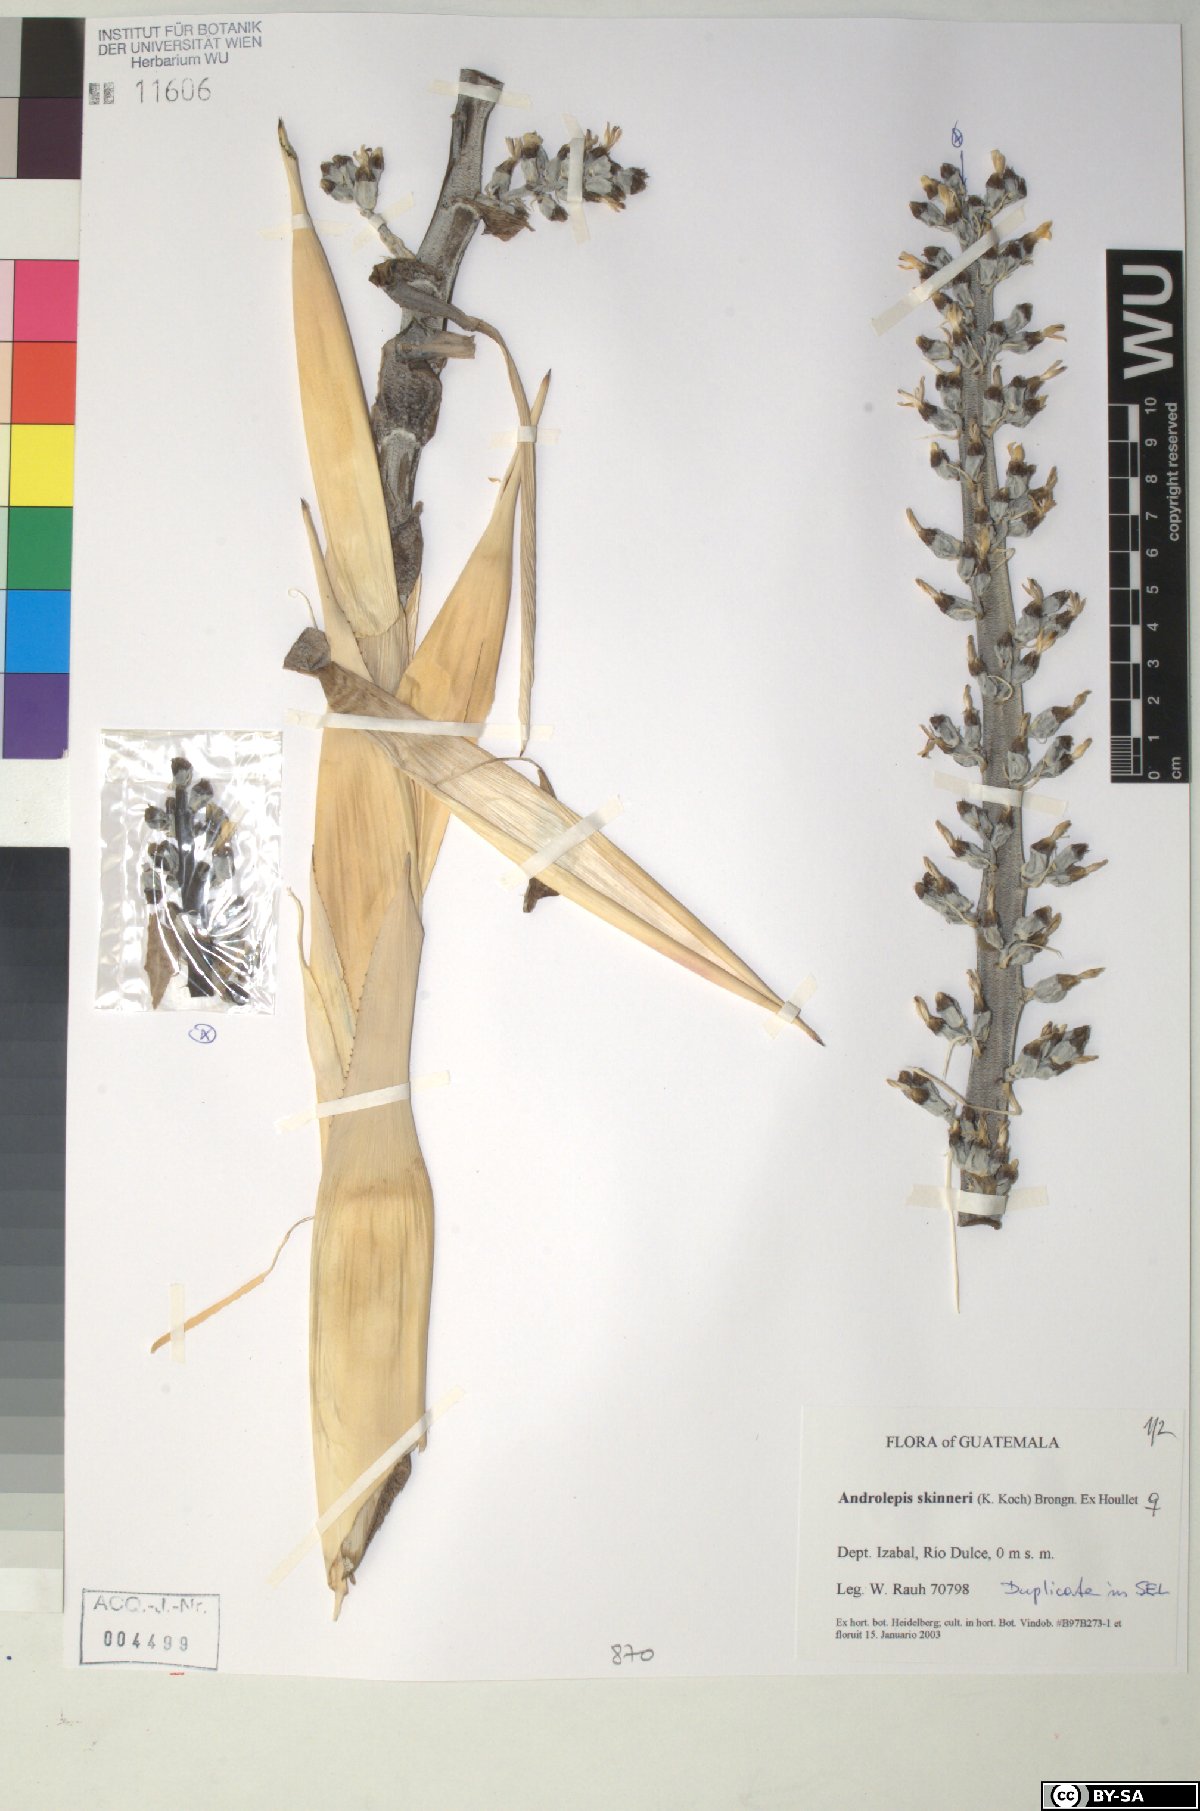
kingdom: Plantae
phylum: Tracheophyta
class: Liliopsida
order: Poales
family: Bromeliaceae
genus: Androlepis
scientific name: Androlepis skinneri
